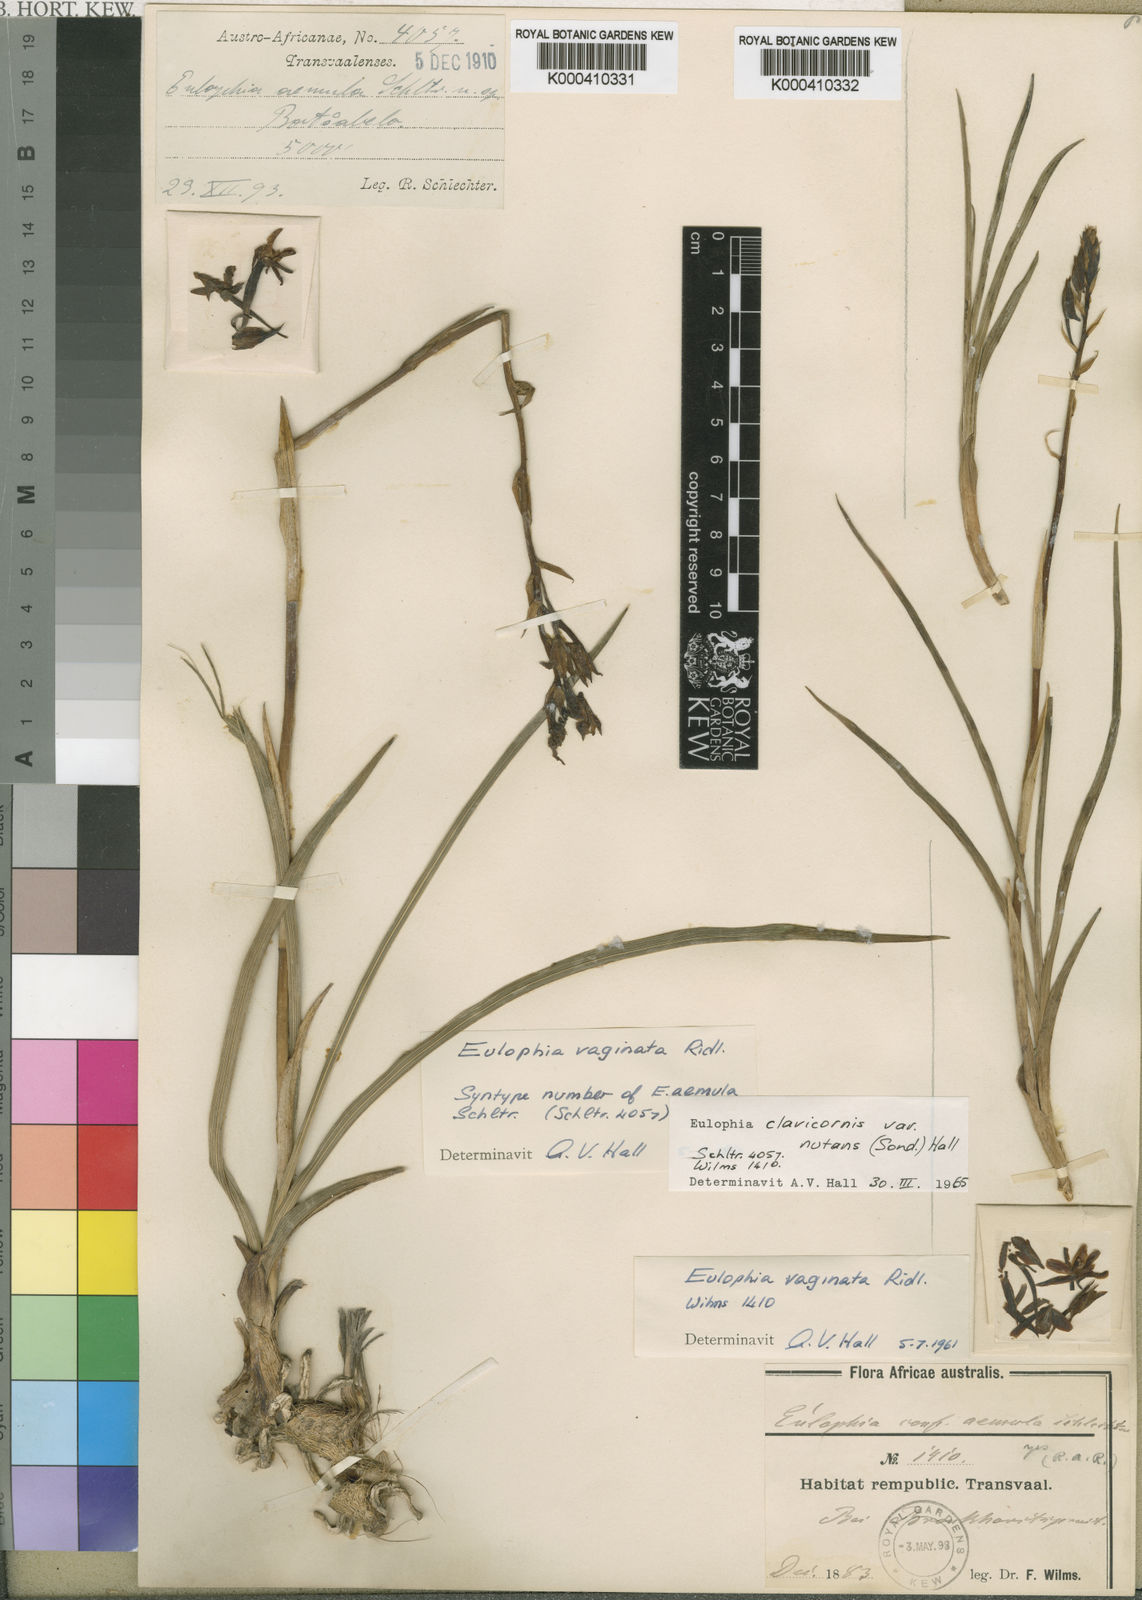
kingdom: Plantae
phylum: Tracheophyta
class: Liliopsida
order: Asparagales
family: Orchidaceae
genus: Eulophia
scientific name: Eulophia hians
